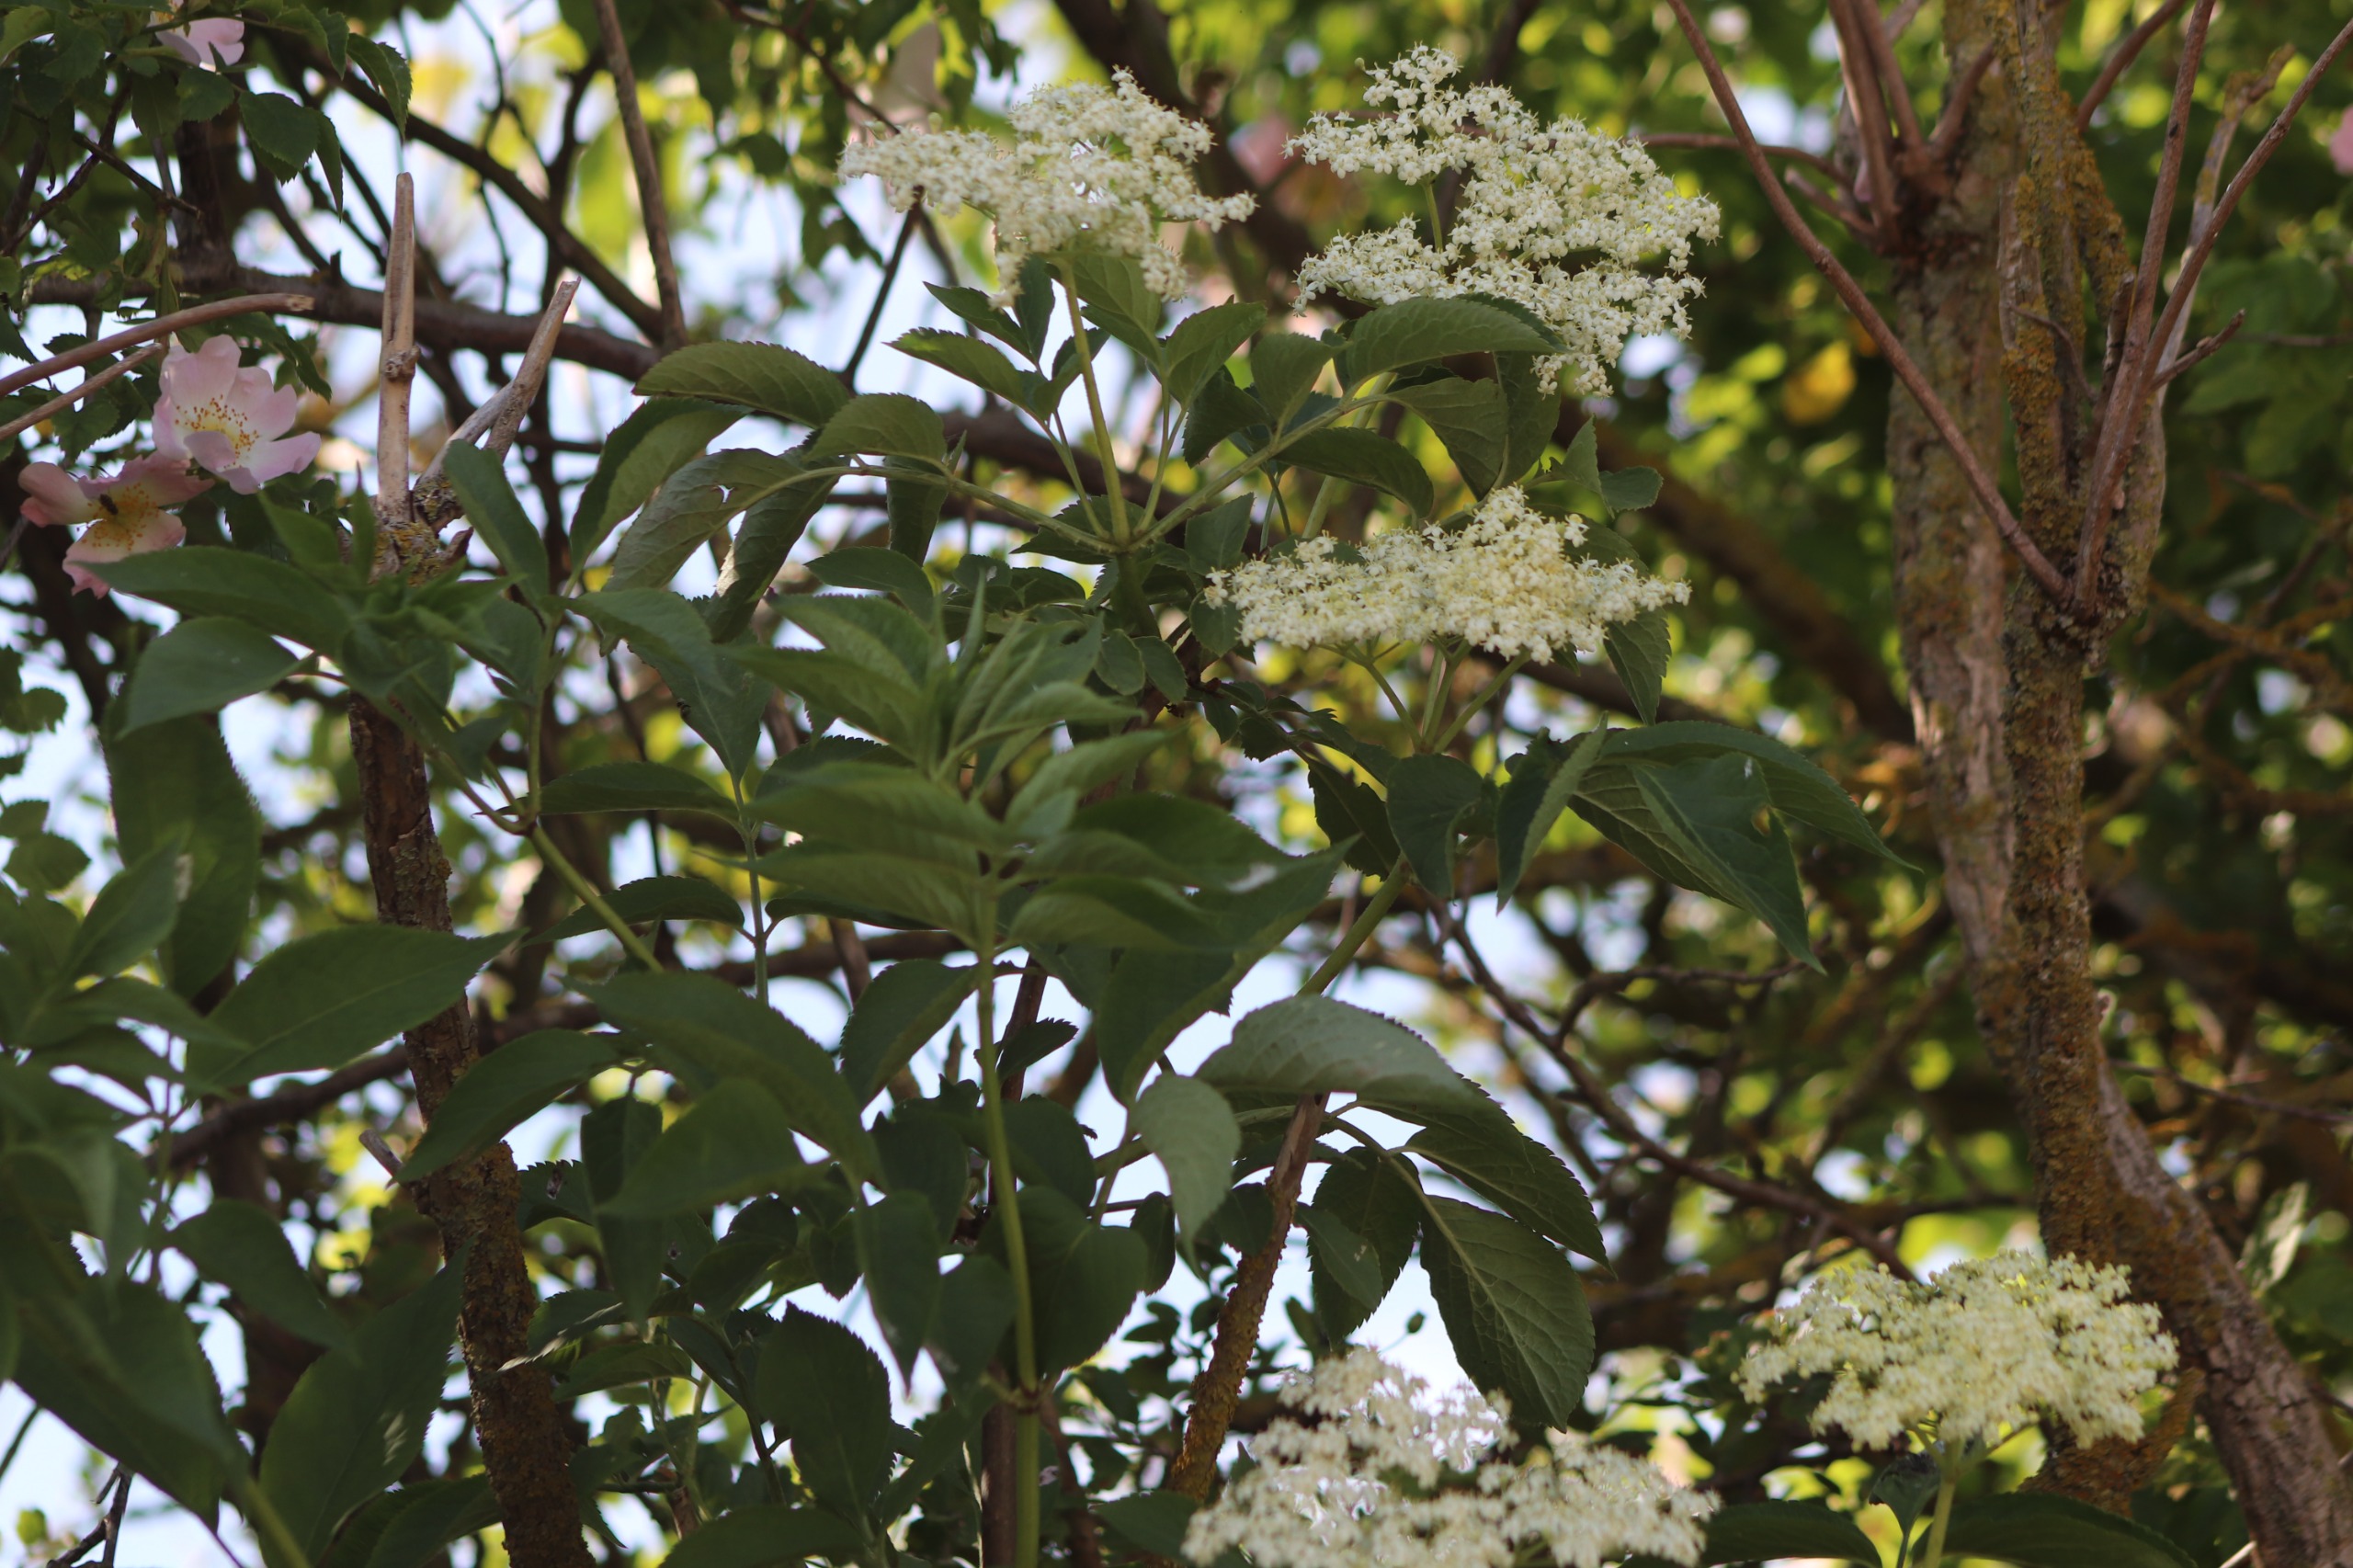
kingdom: Plantae
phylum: Tracheophyta
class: Magnoliopsida
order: Dipsacales
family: Viburnaceae
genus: Sambucus
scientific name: Sambucus nigra
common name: Almindelig hyld
